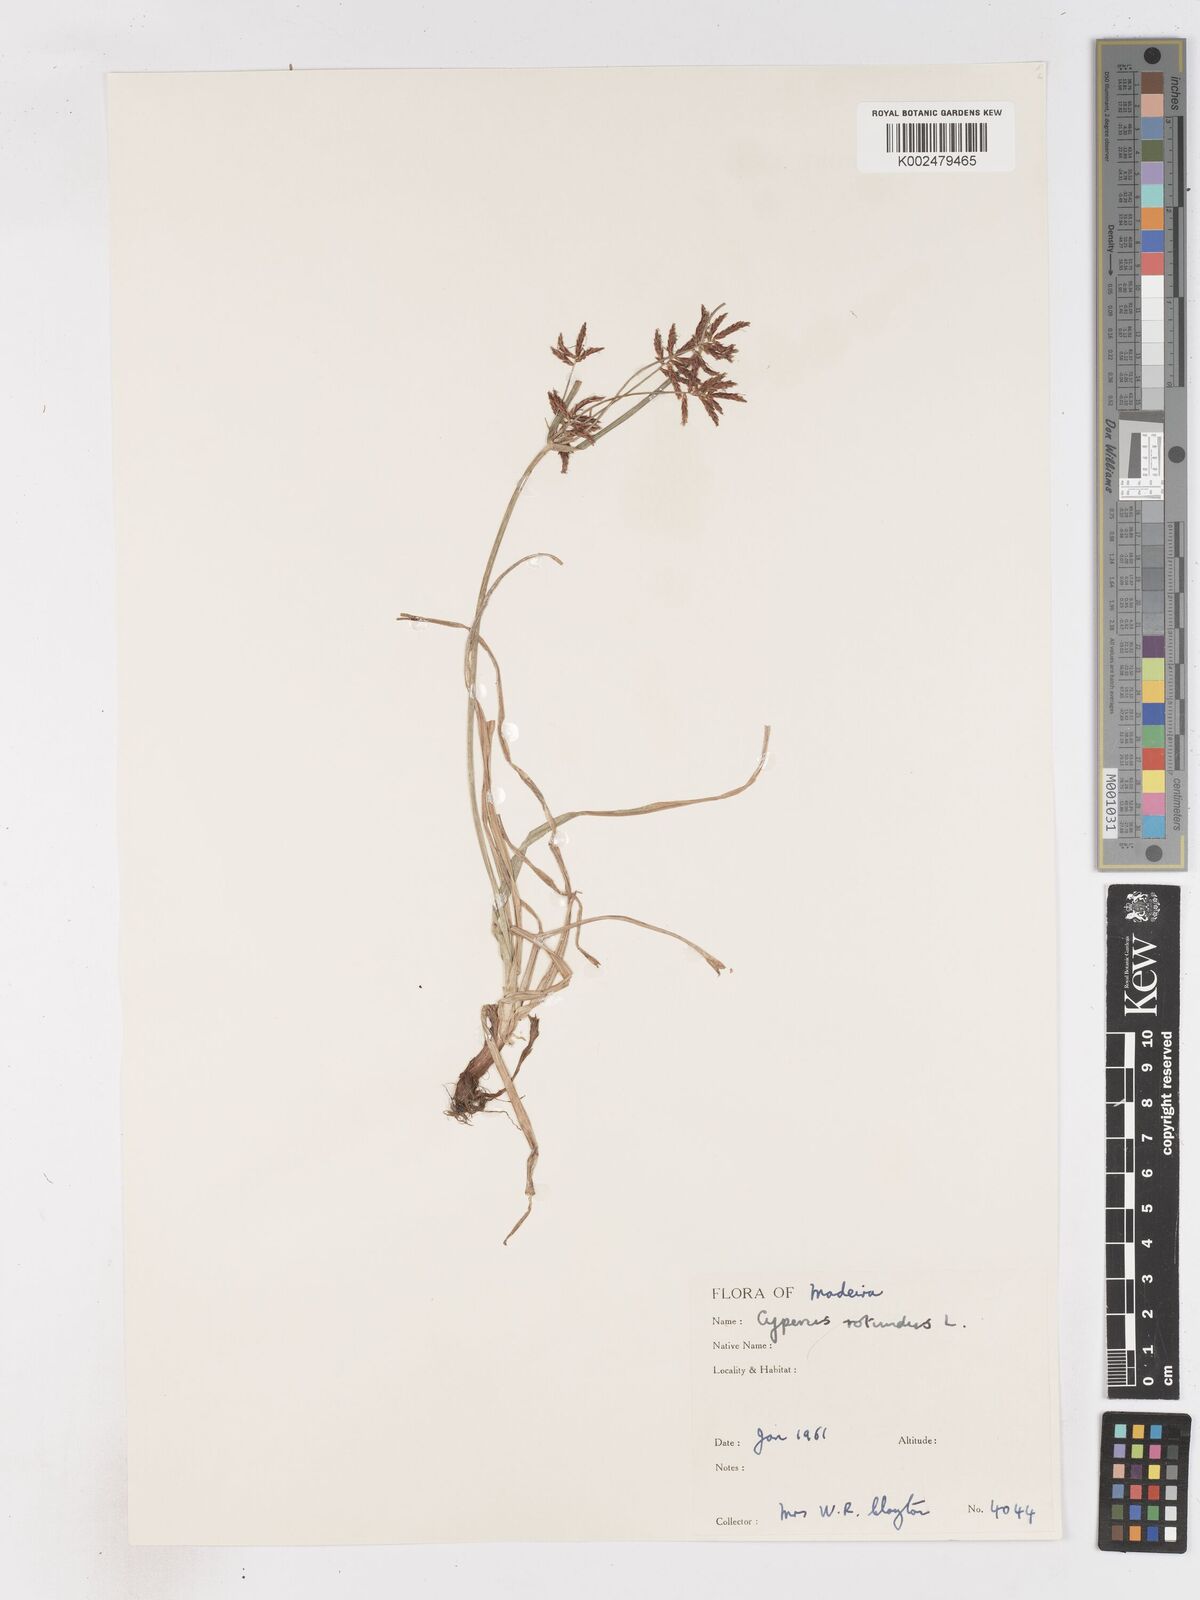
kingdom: Plantae
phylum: Tracheophyta
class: Liliopsida
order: Poales
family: Cyperaceae
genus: Cyperus
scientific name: Cyperus rotundus
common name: Nutgrass
